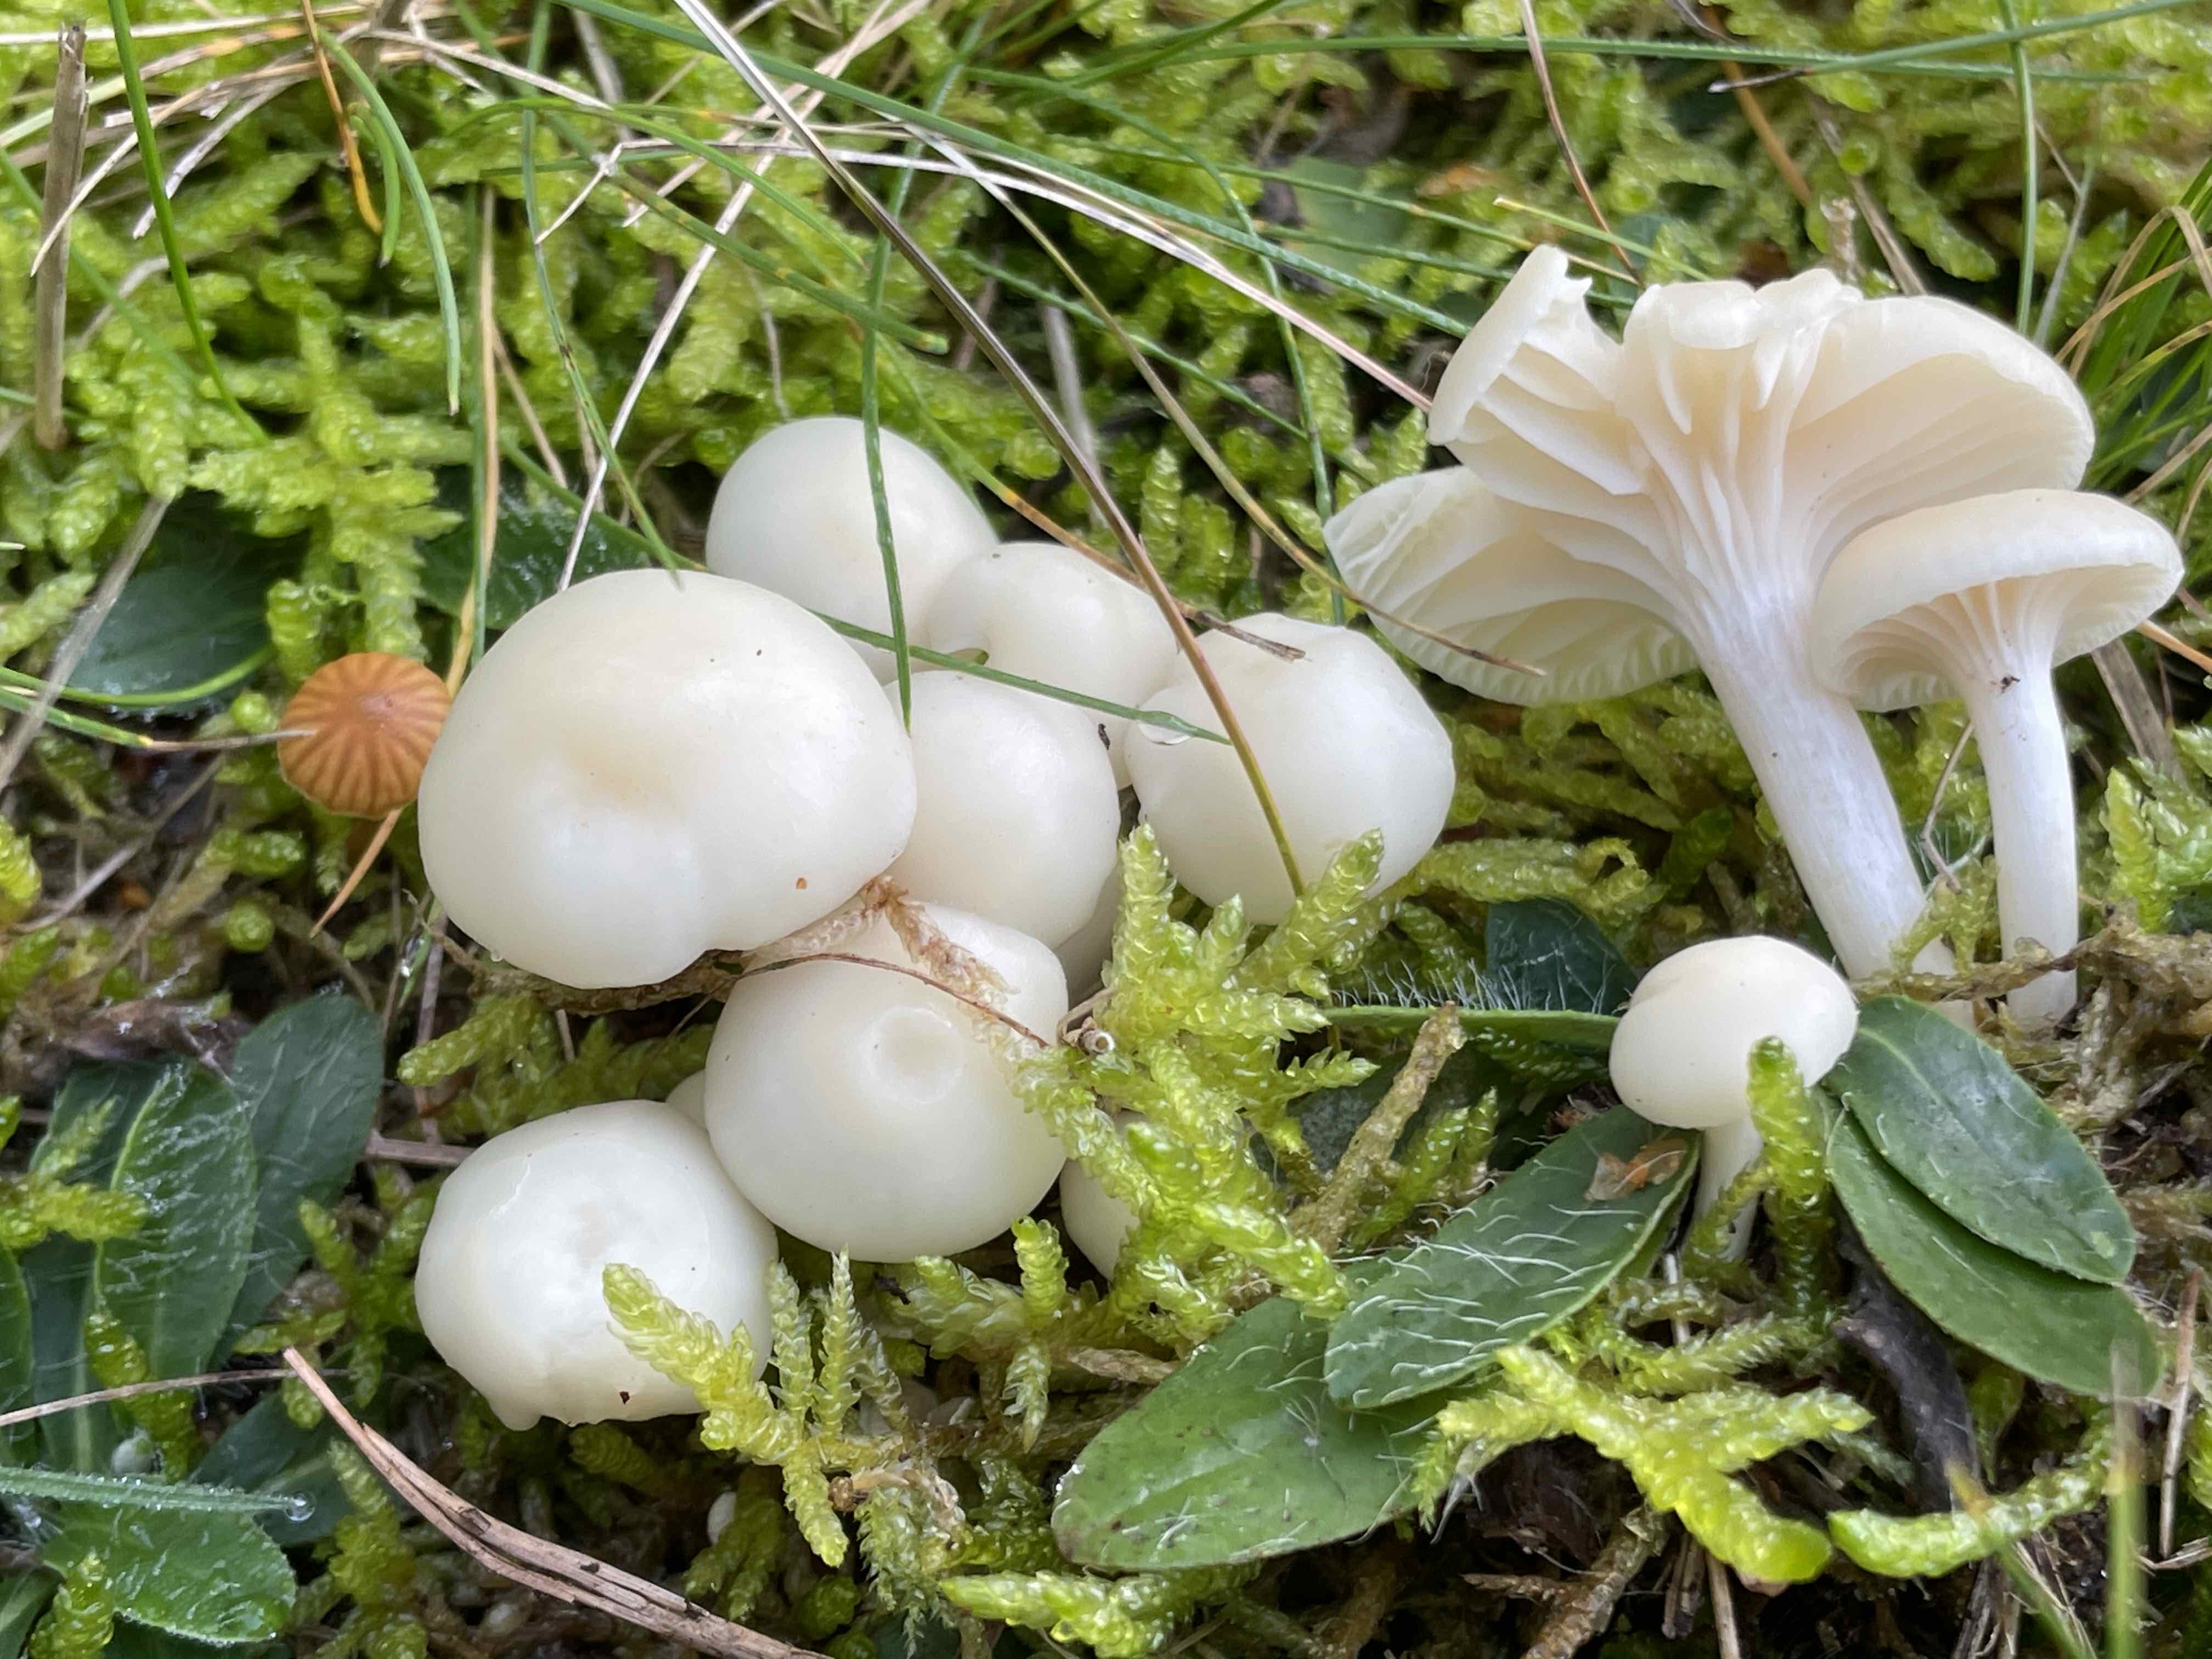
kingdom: Fungi
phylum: Basidiomycota
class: Agaricomycetes
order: Agaricales
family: Hygrophoraceae
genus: Cuphophyllus
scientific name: Cuphophyllus virgineus
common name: snehvid vokshat
